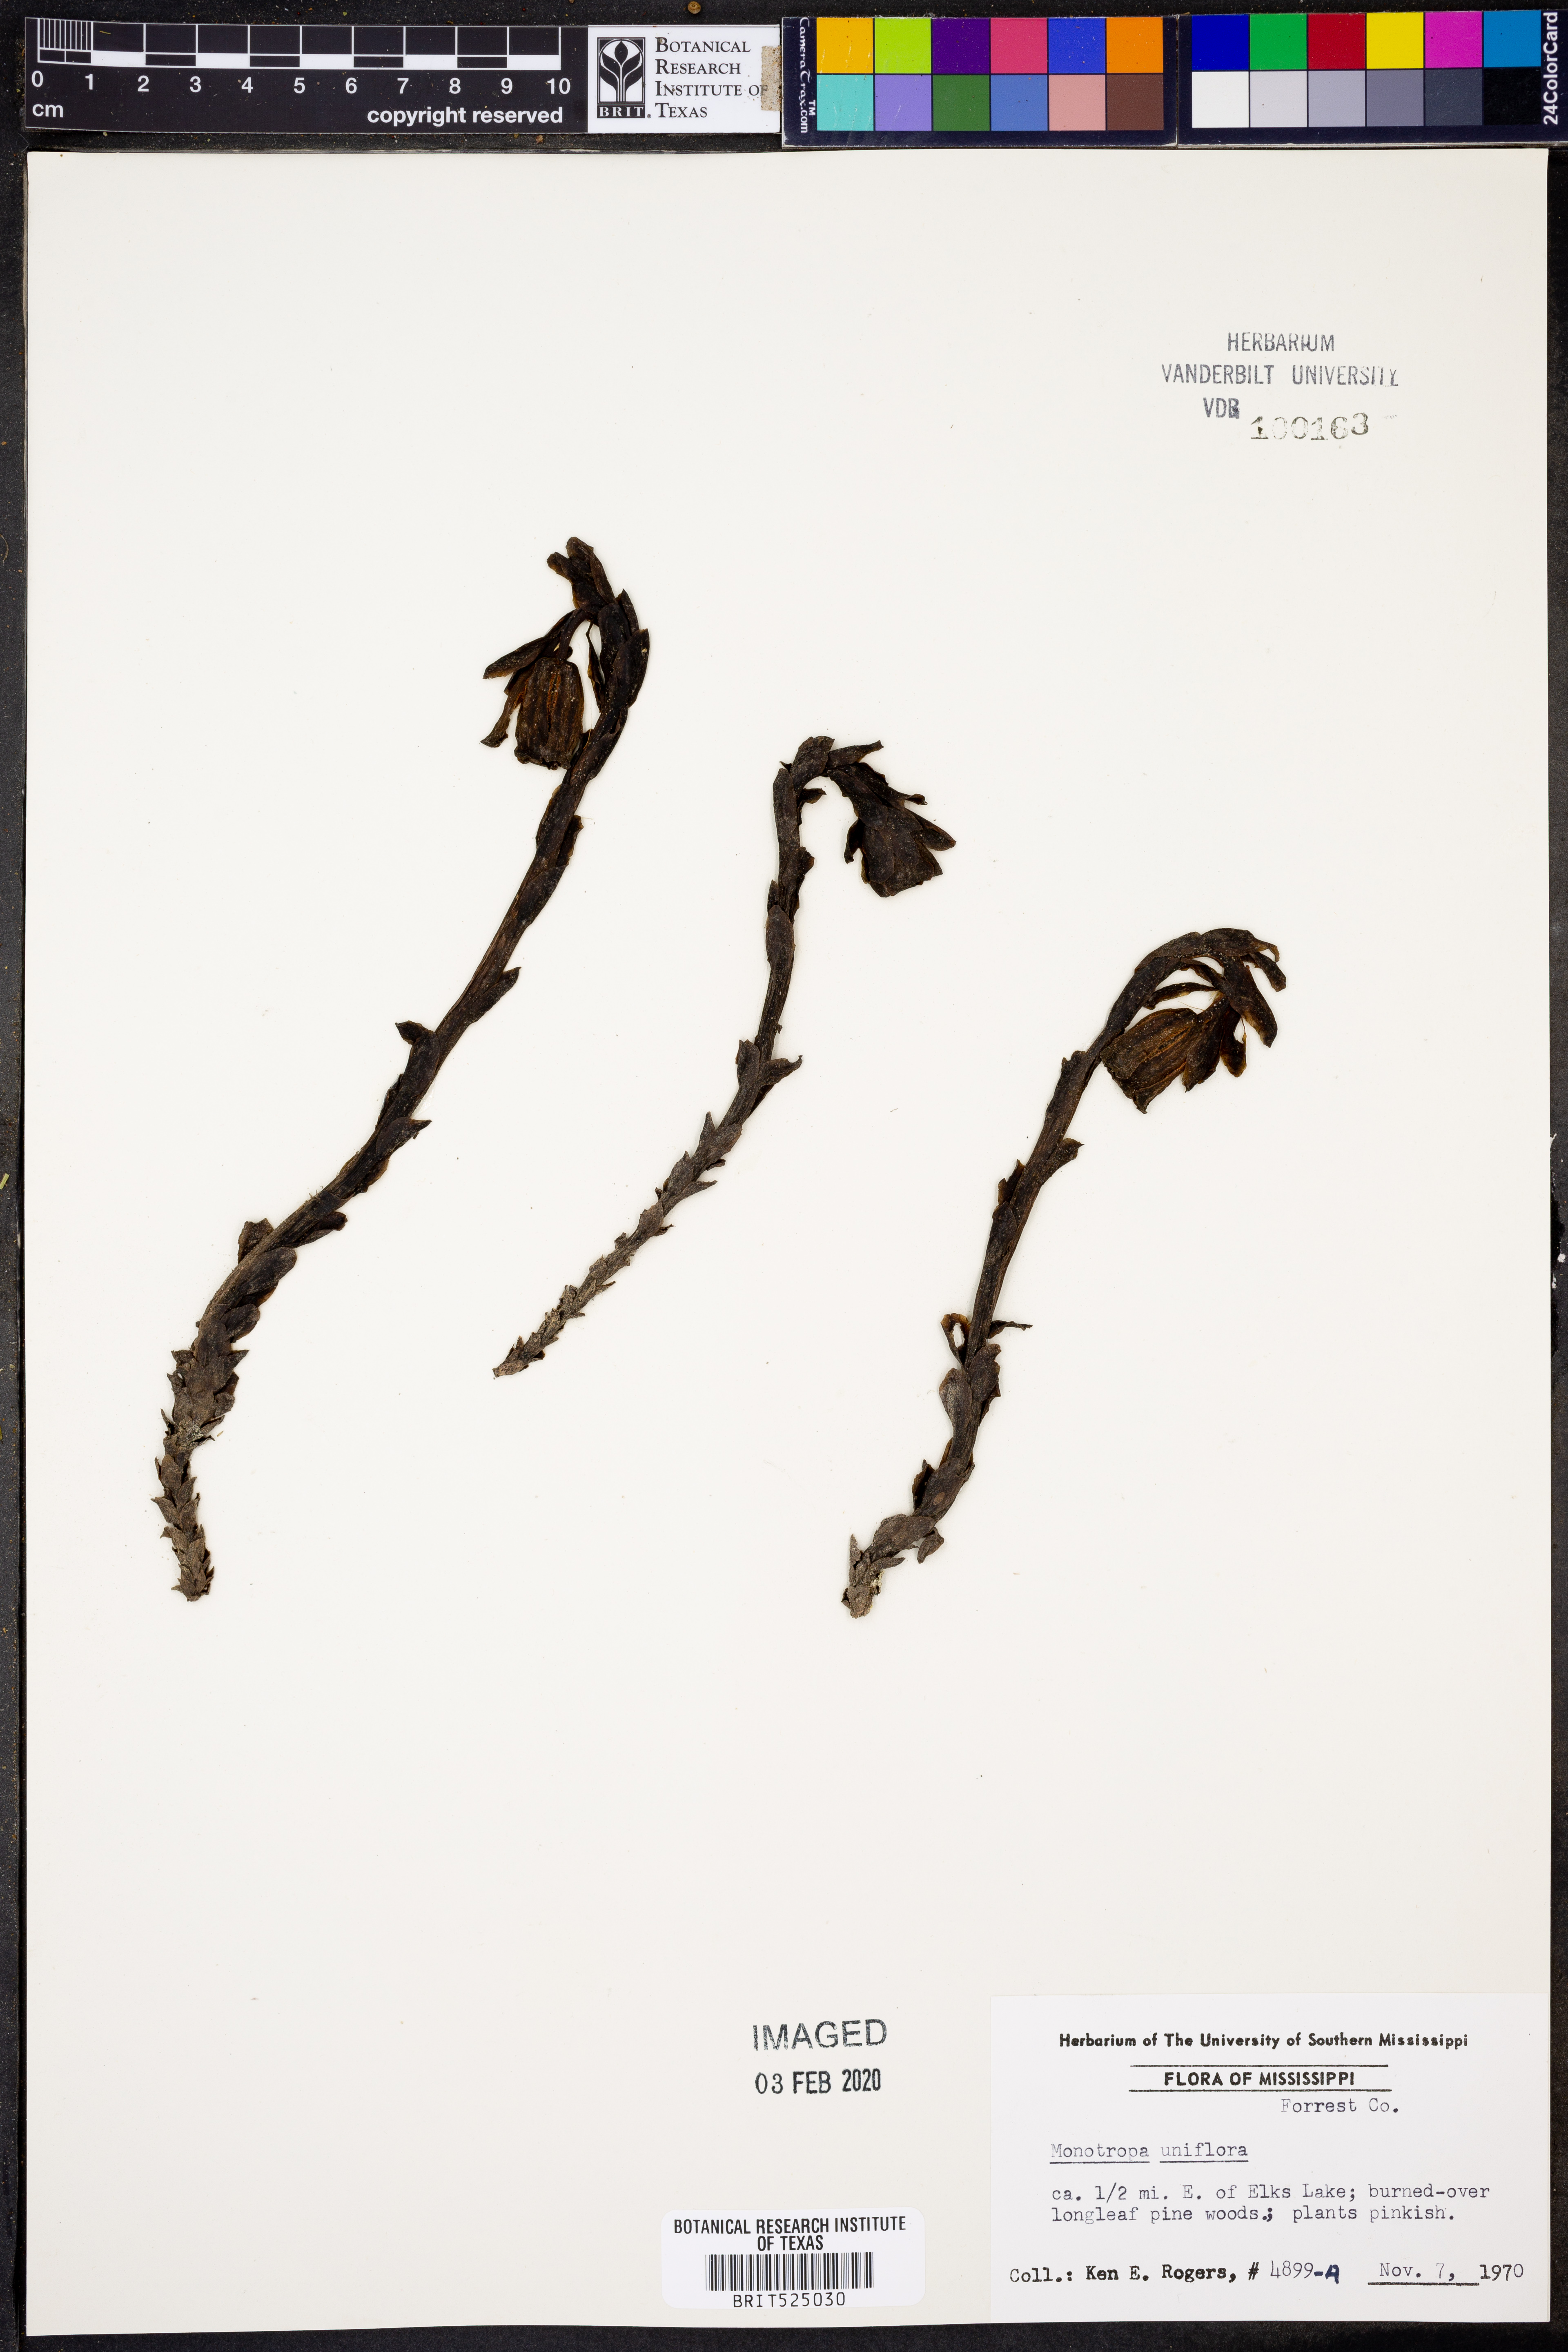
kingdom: Plantae
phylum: Tracheophyta
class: Magnoliopsida
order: Ericales
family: Ericaceae
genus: Monotropa
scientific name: Monotropa uniflora
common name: Convulsion root
